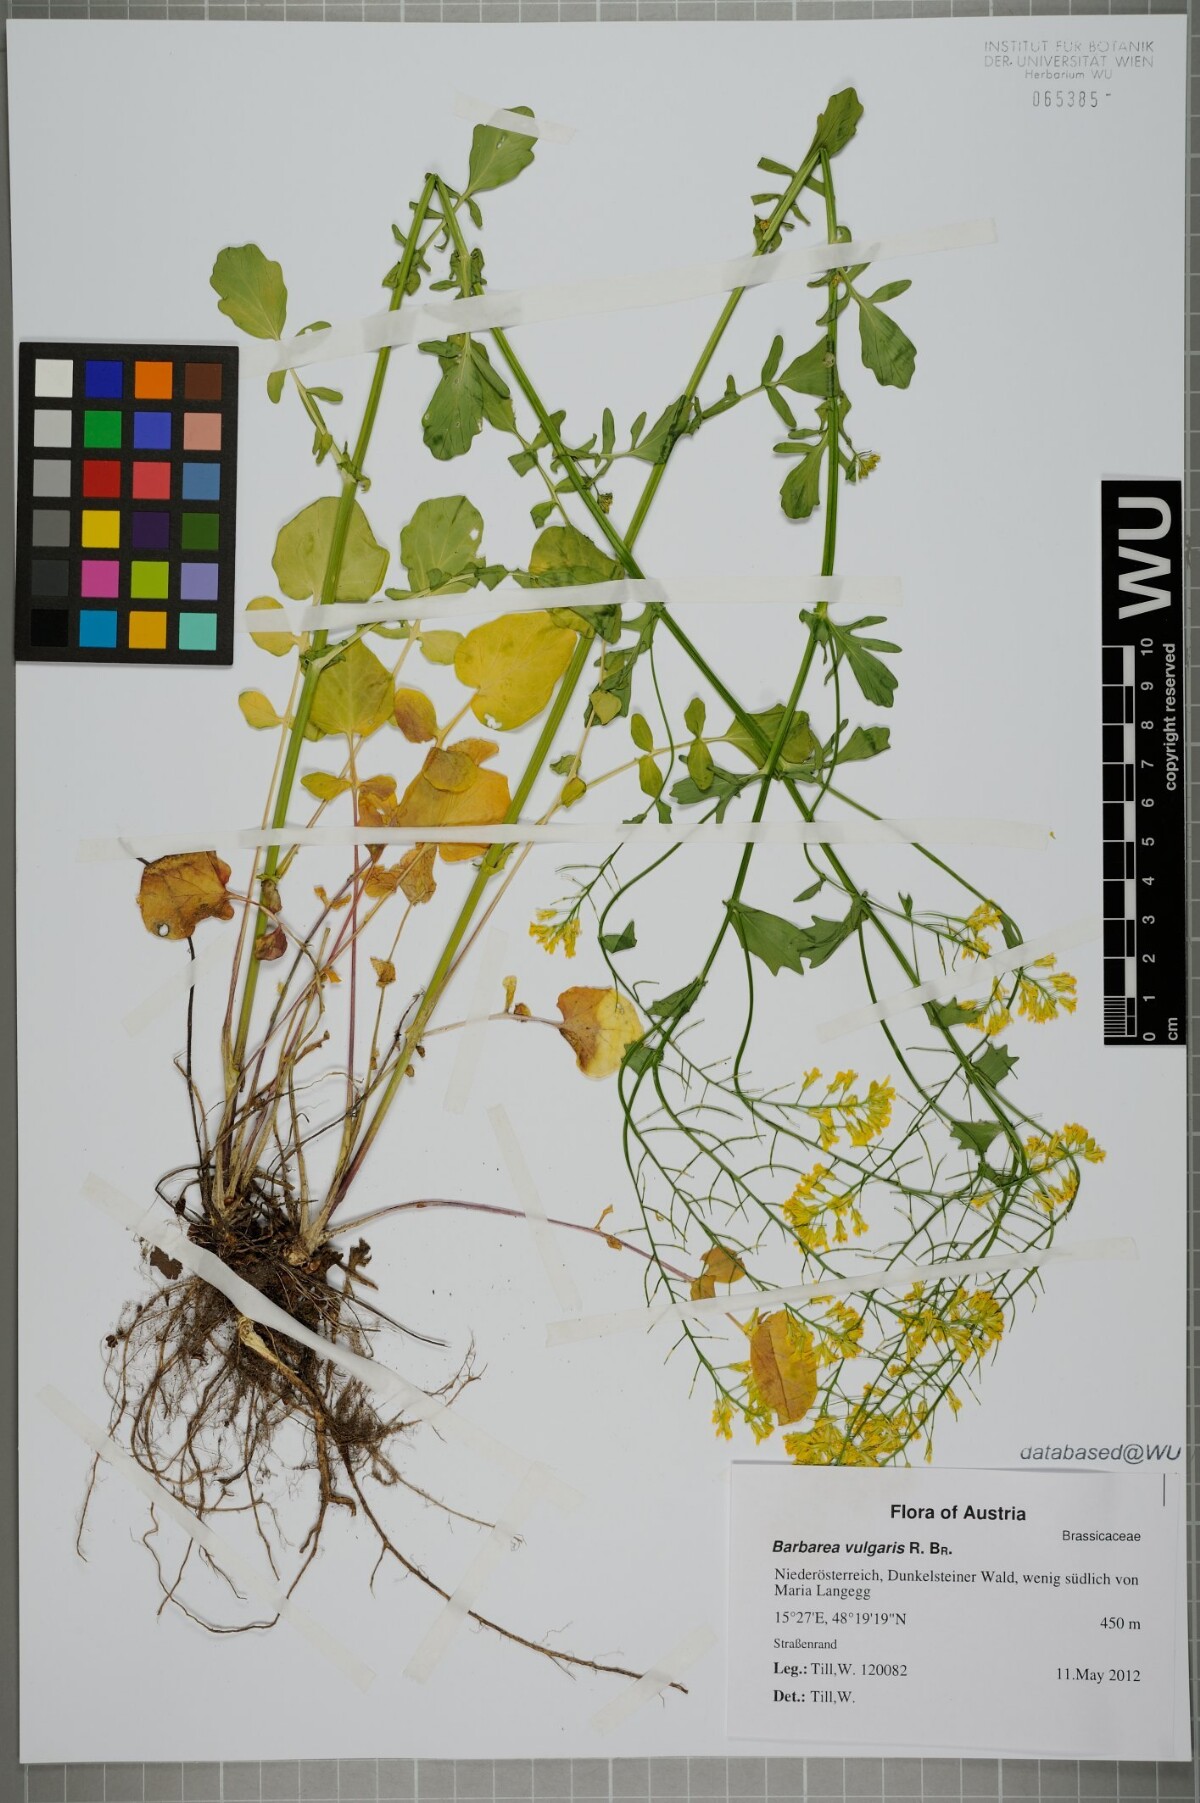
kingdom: Plantae
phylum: Tracheophyta
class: Magnoliopsida
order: Brassicales
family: Brassicaceae
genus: Barbarea
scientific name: Barbarea vulgaris
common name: Cressy-greens
